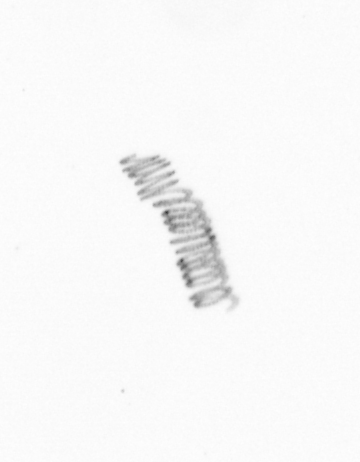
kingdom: Chromista
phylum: Ochrophyta
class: Bacillariophyceae
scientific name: Bacillariophyceae
